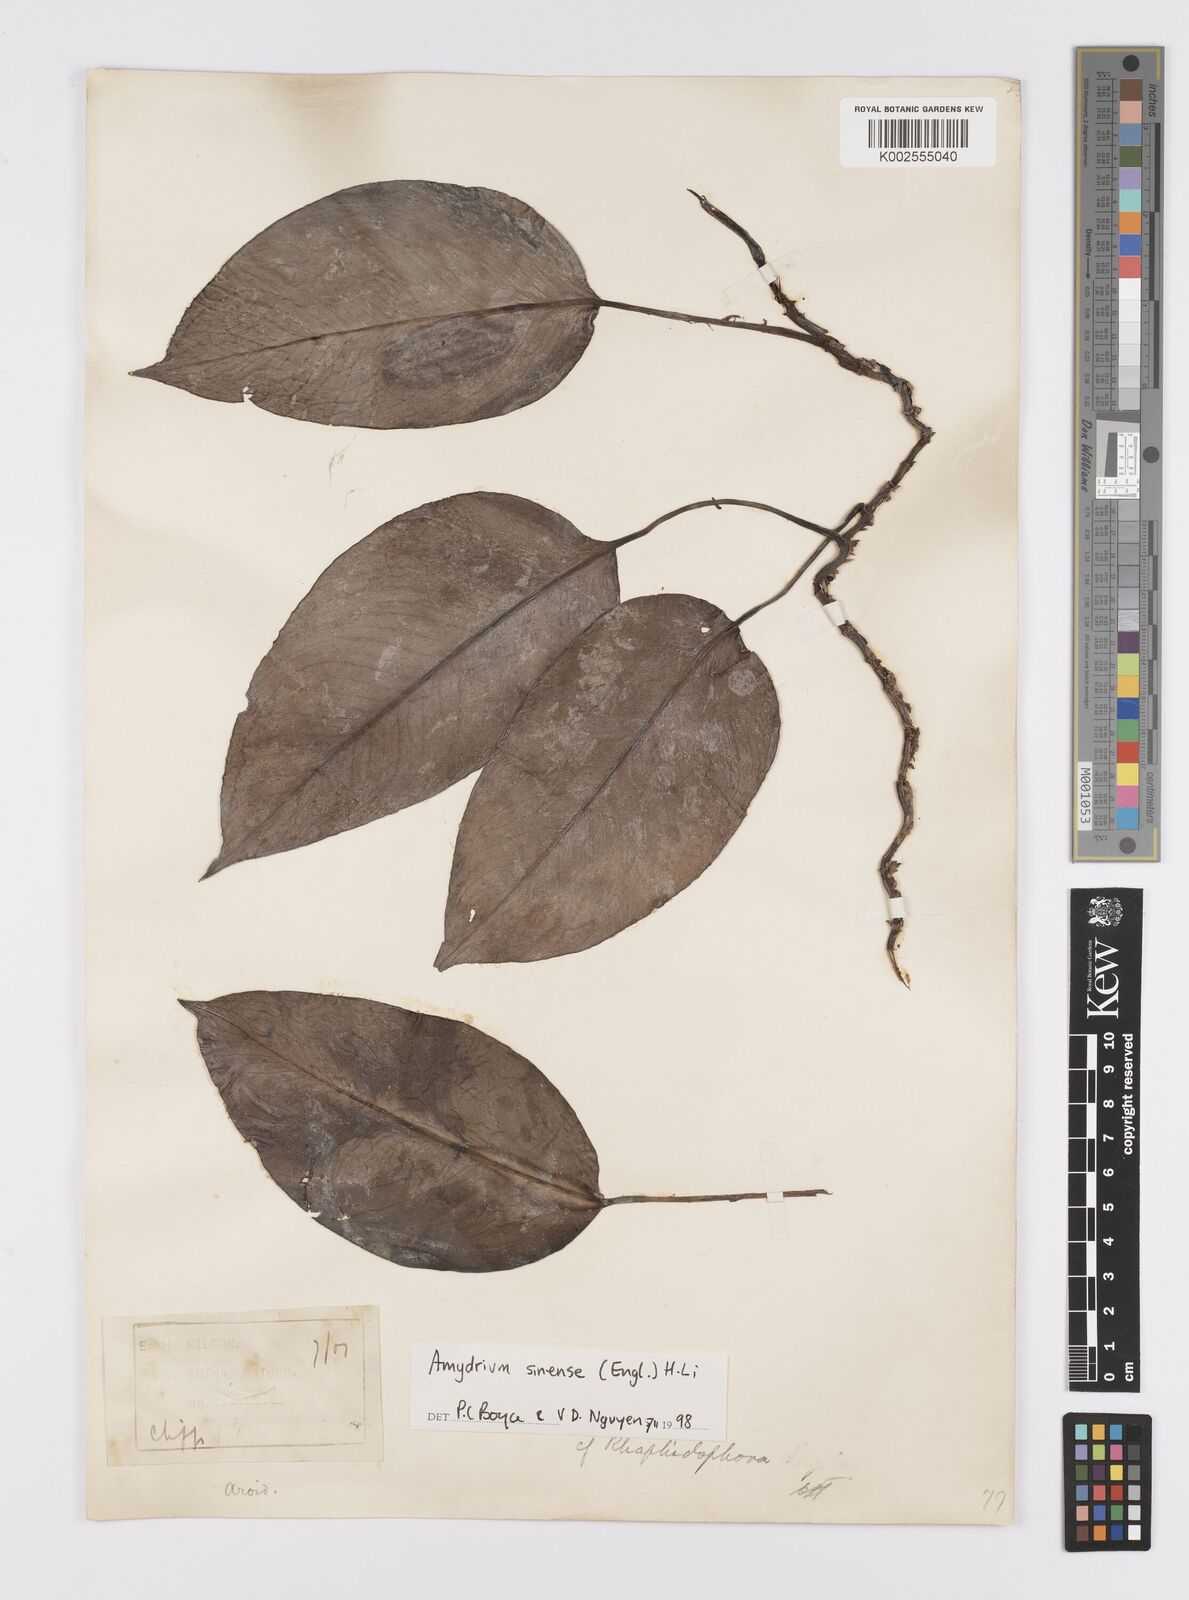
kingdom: Plantae
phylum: Tracheophyta
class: Liliopsida
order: Alismatales
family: Araceae
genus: Amydrium
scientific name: Amydrium sinense
